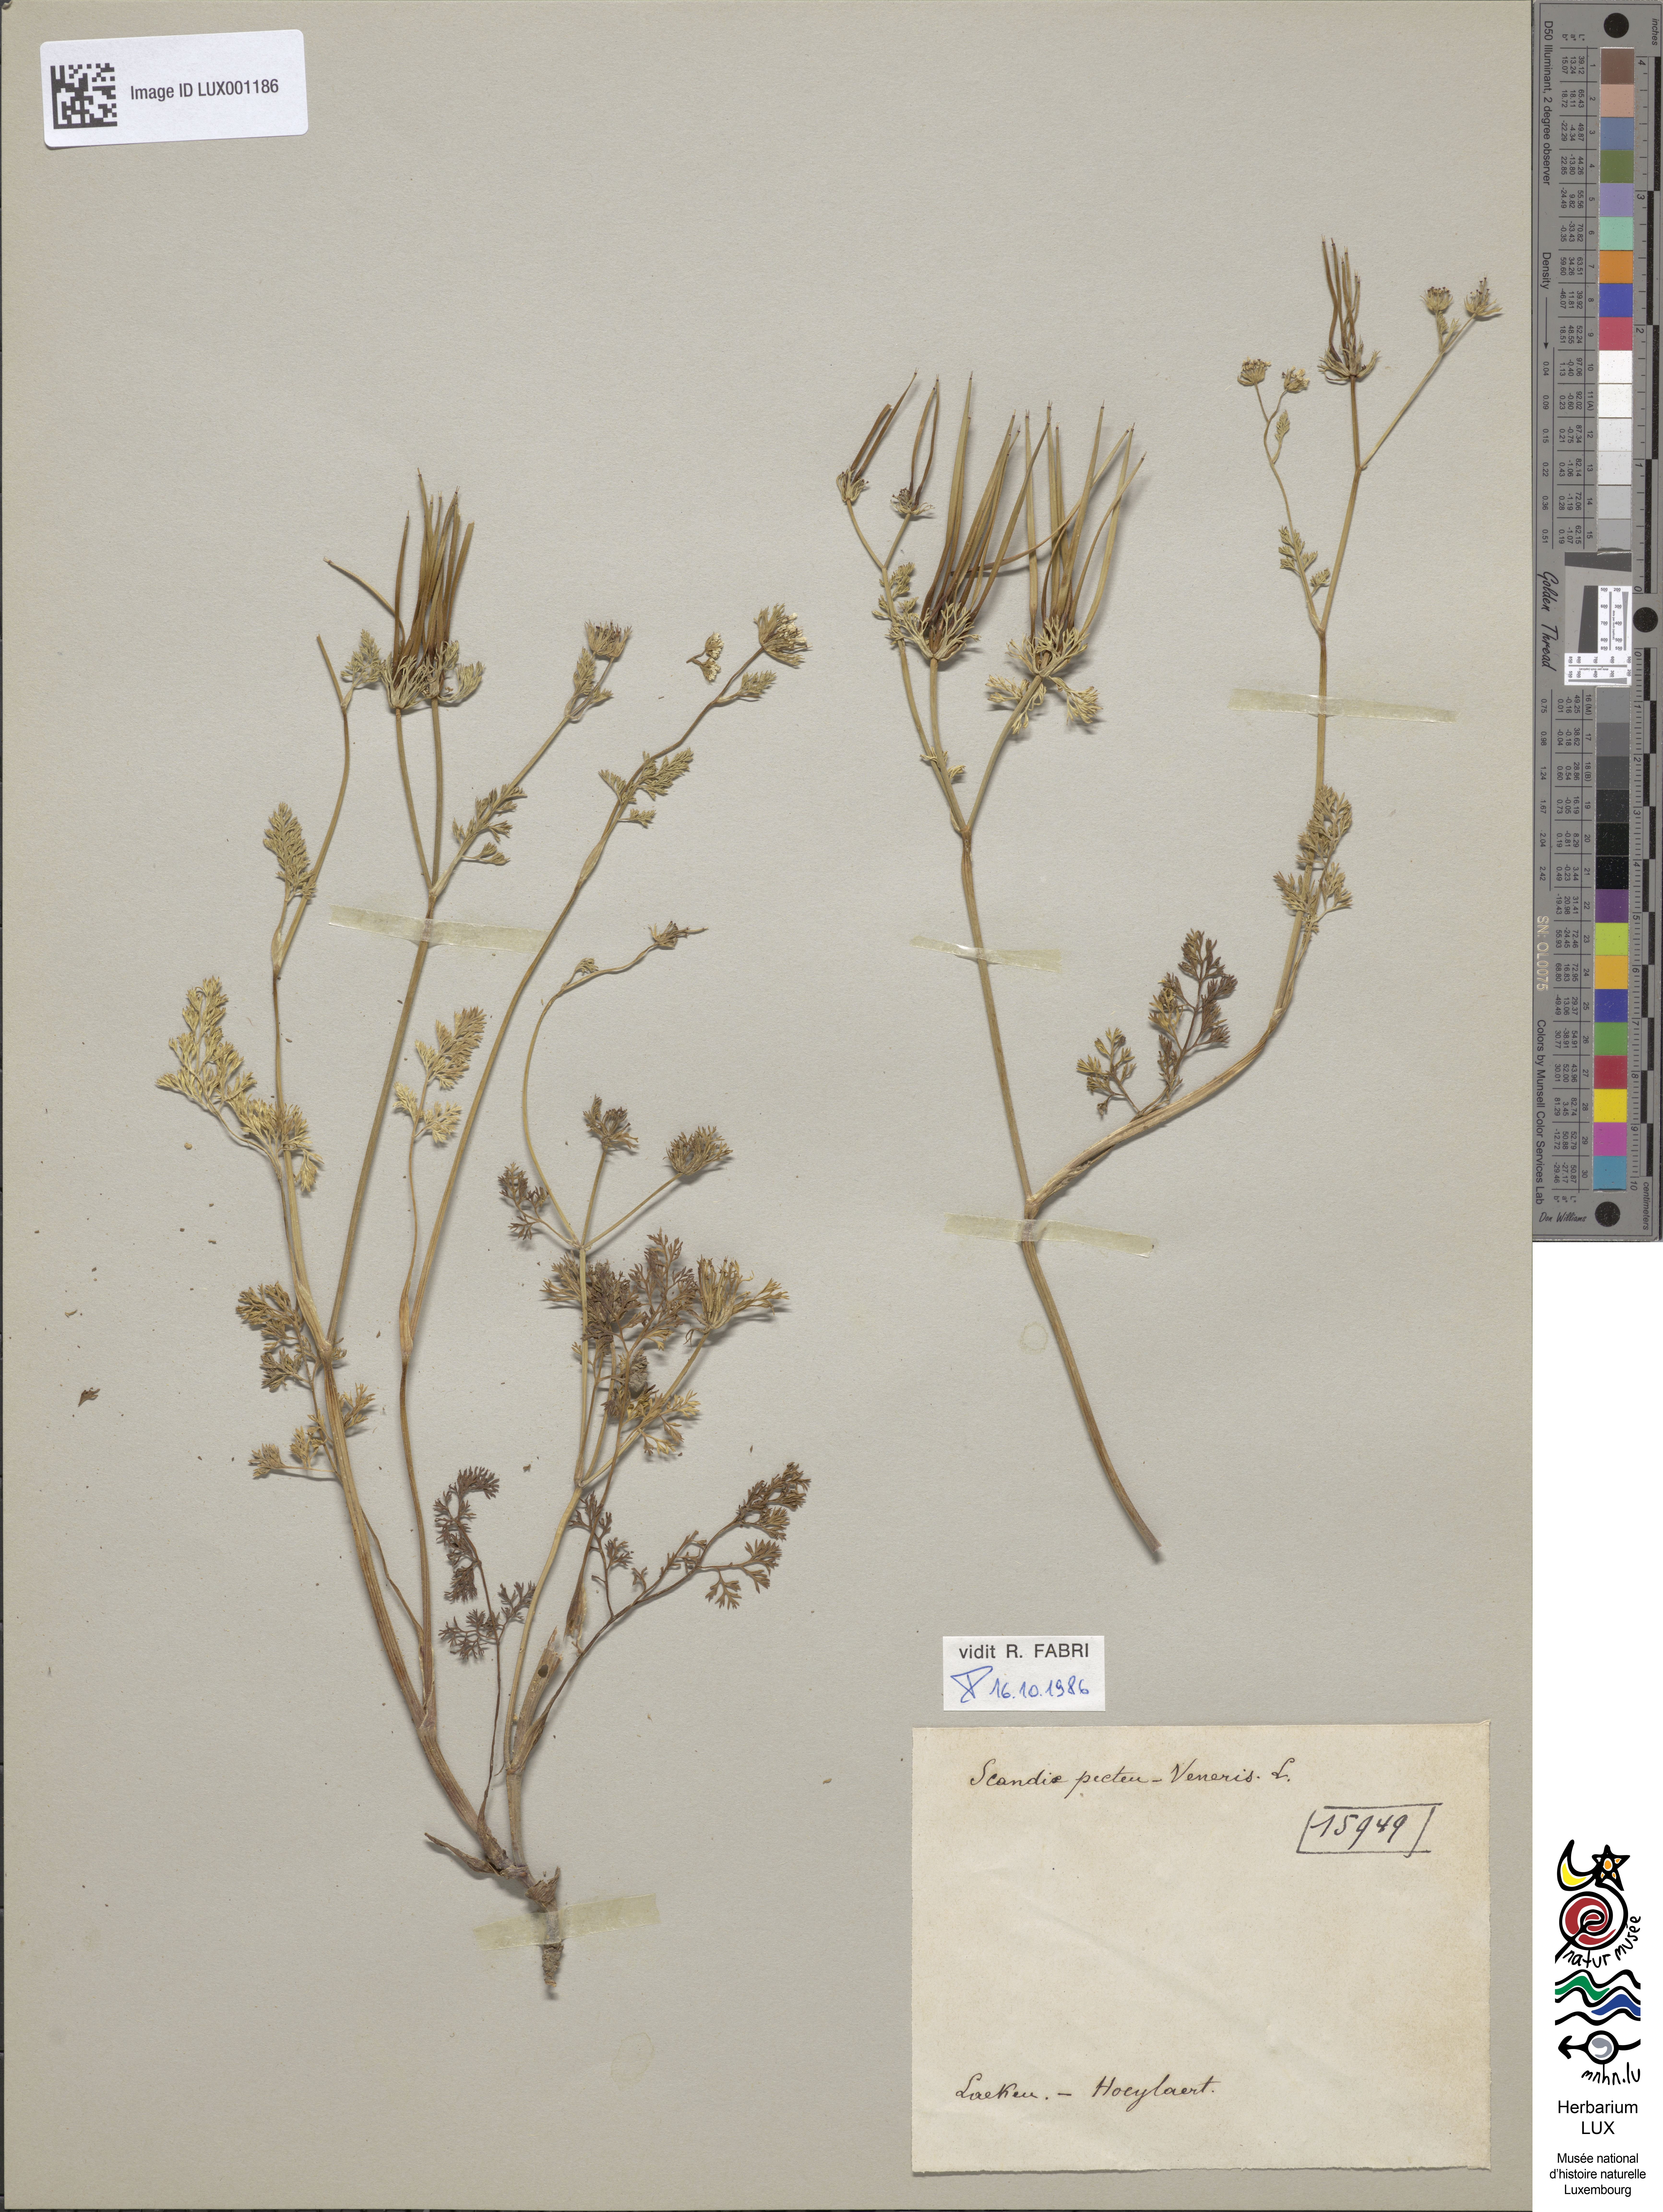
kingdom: Plantae
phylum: Tracheophyta
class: Magnoliopsida
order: Apiales
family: Apiaceae
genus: Scandix
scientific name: Scandix pecten-veneris
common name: Shepherd's-needle
